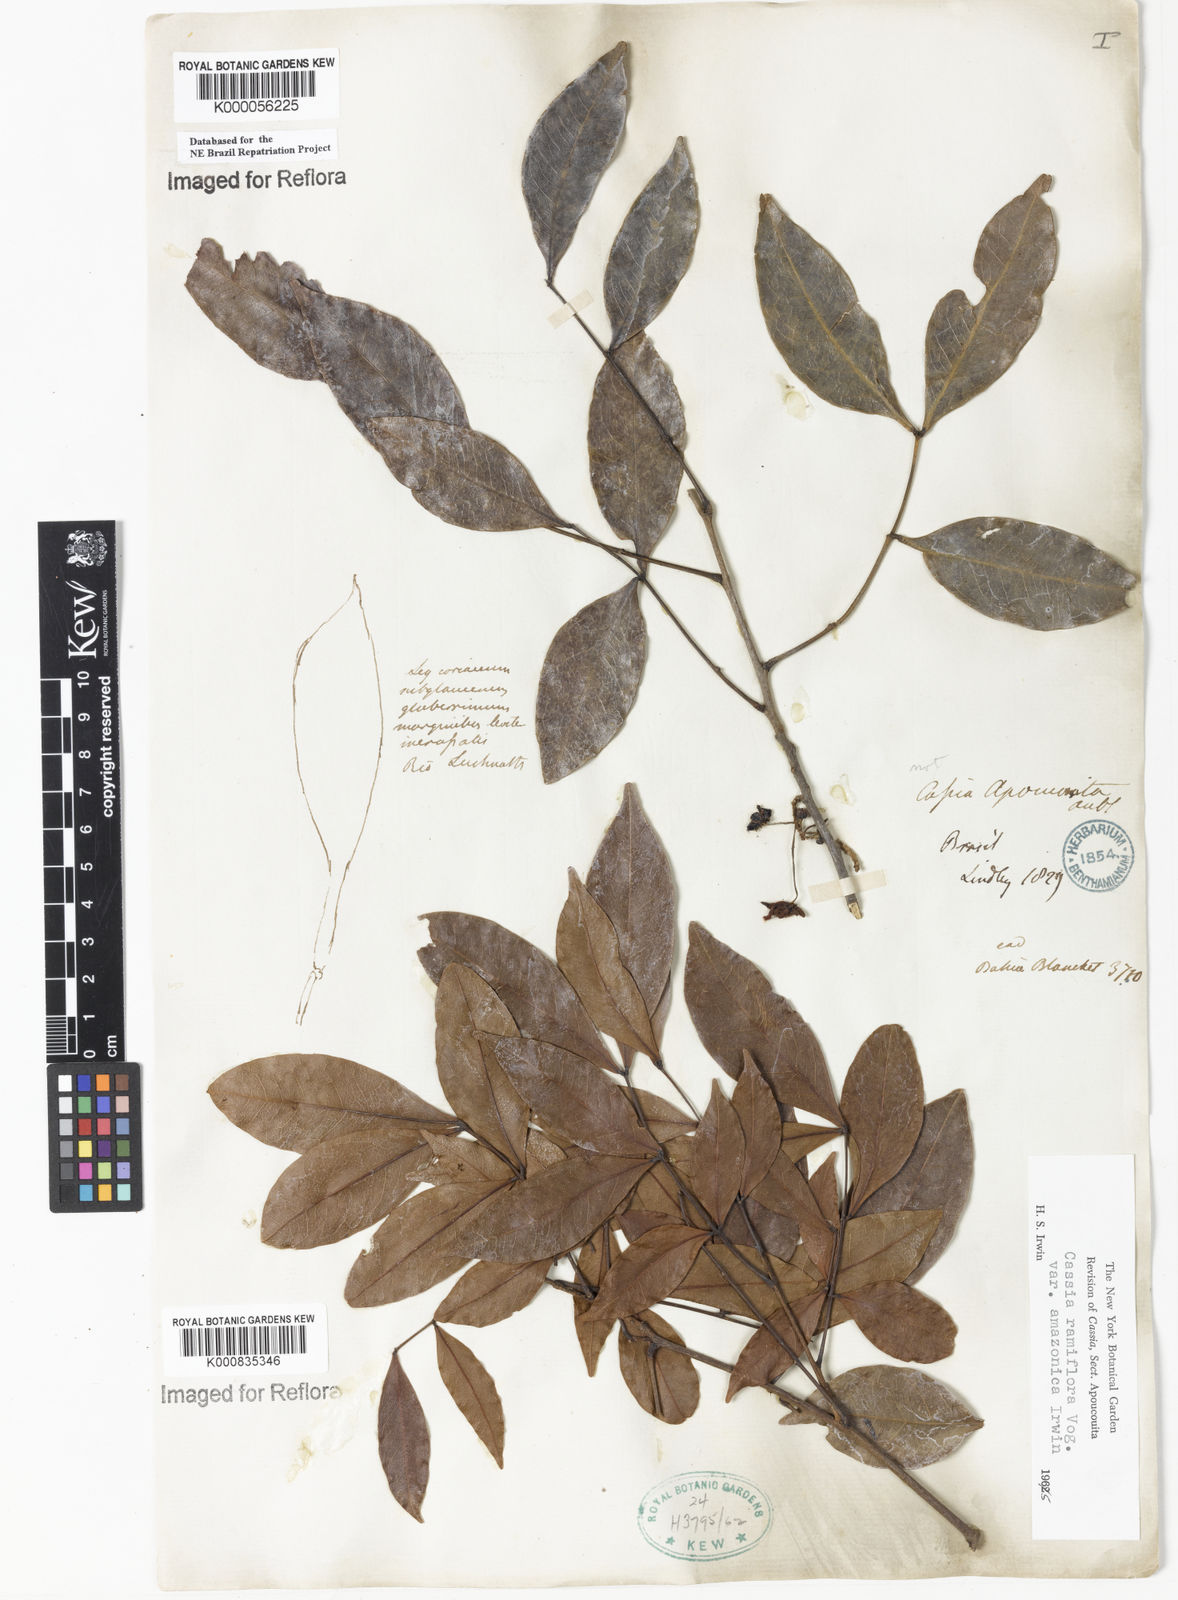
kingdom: Plantae
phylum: Tracheophyta
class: Magnoliopsida
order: Fabales
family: Fabaceae
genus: Chamaecrista
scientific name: Chamaecrista eitenorum
